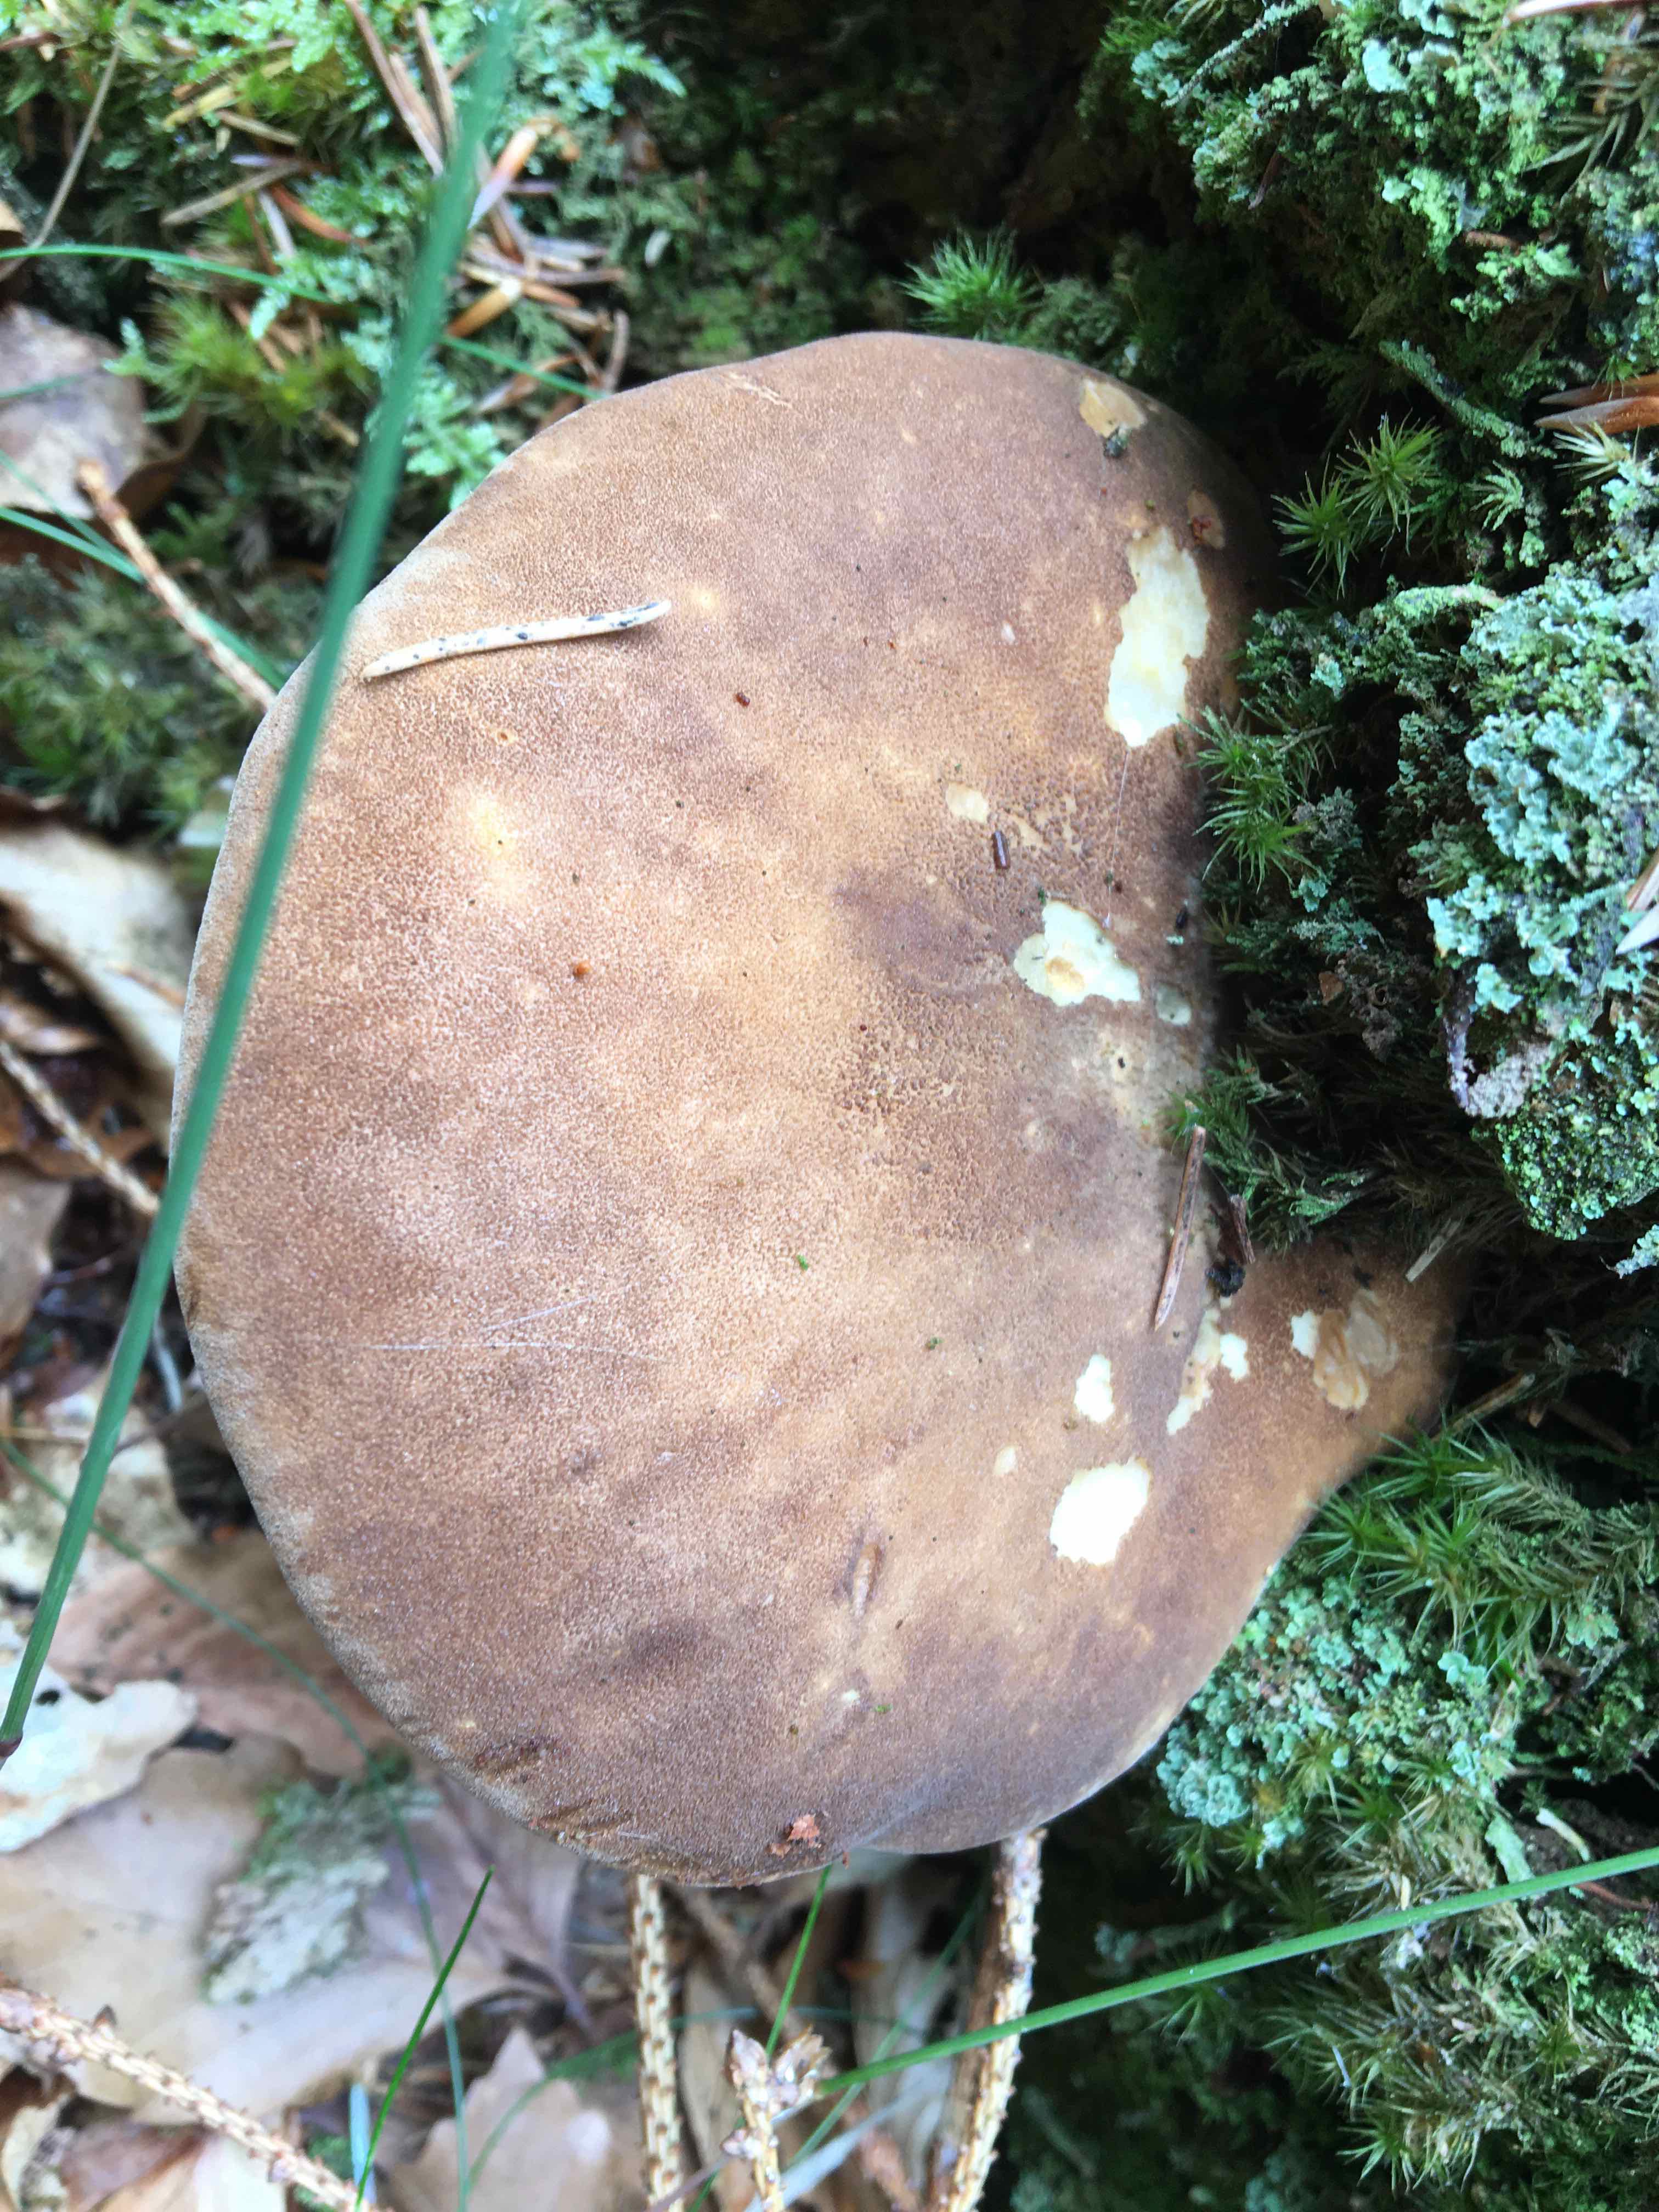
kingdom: Fungi
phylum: Basidiomycota
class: Agaricomycetes
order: Boletales
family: Tapinellaceae
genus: Tapinella
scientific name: Tapinella atrotomentosa
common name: sortfiltet viftesvamp
